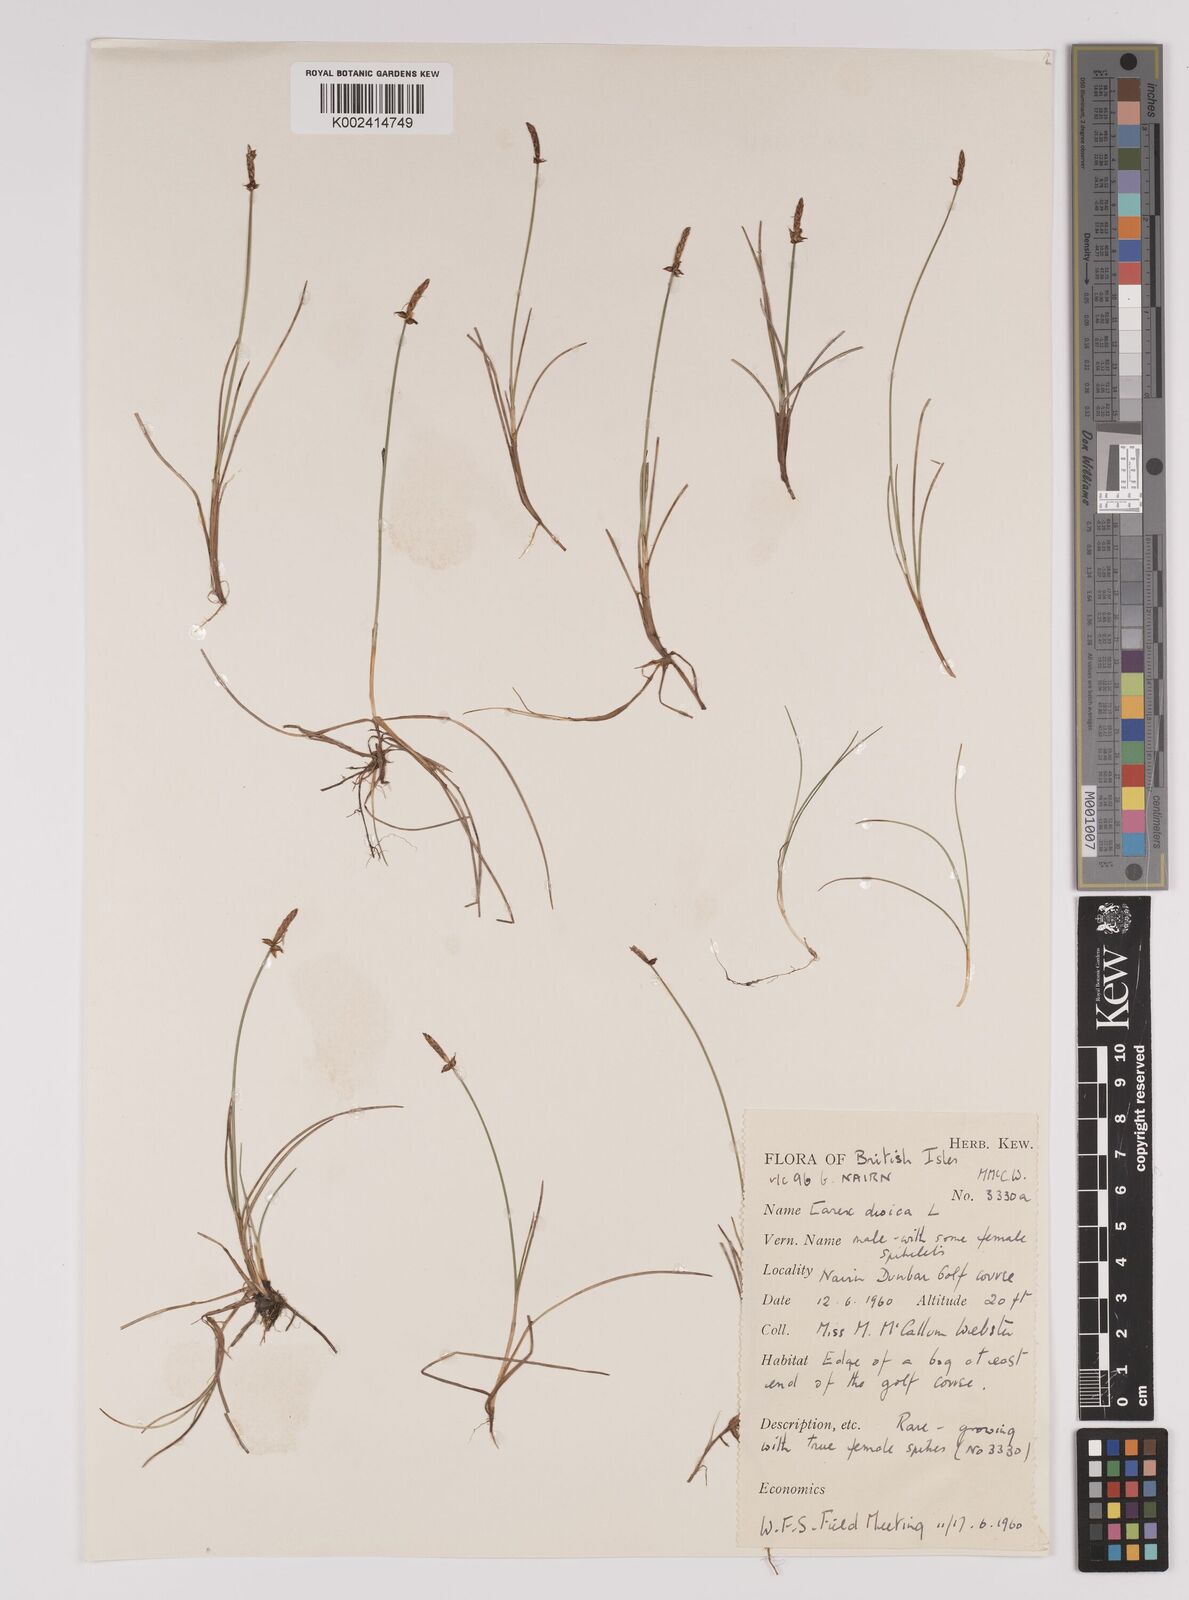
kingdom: Plantae
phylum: Tracheophyta
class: Liliopsida
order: Poales
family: Cyperaceae
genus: Carex
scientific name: Carex dioica
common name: Dioecious sedge
